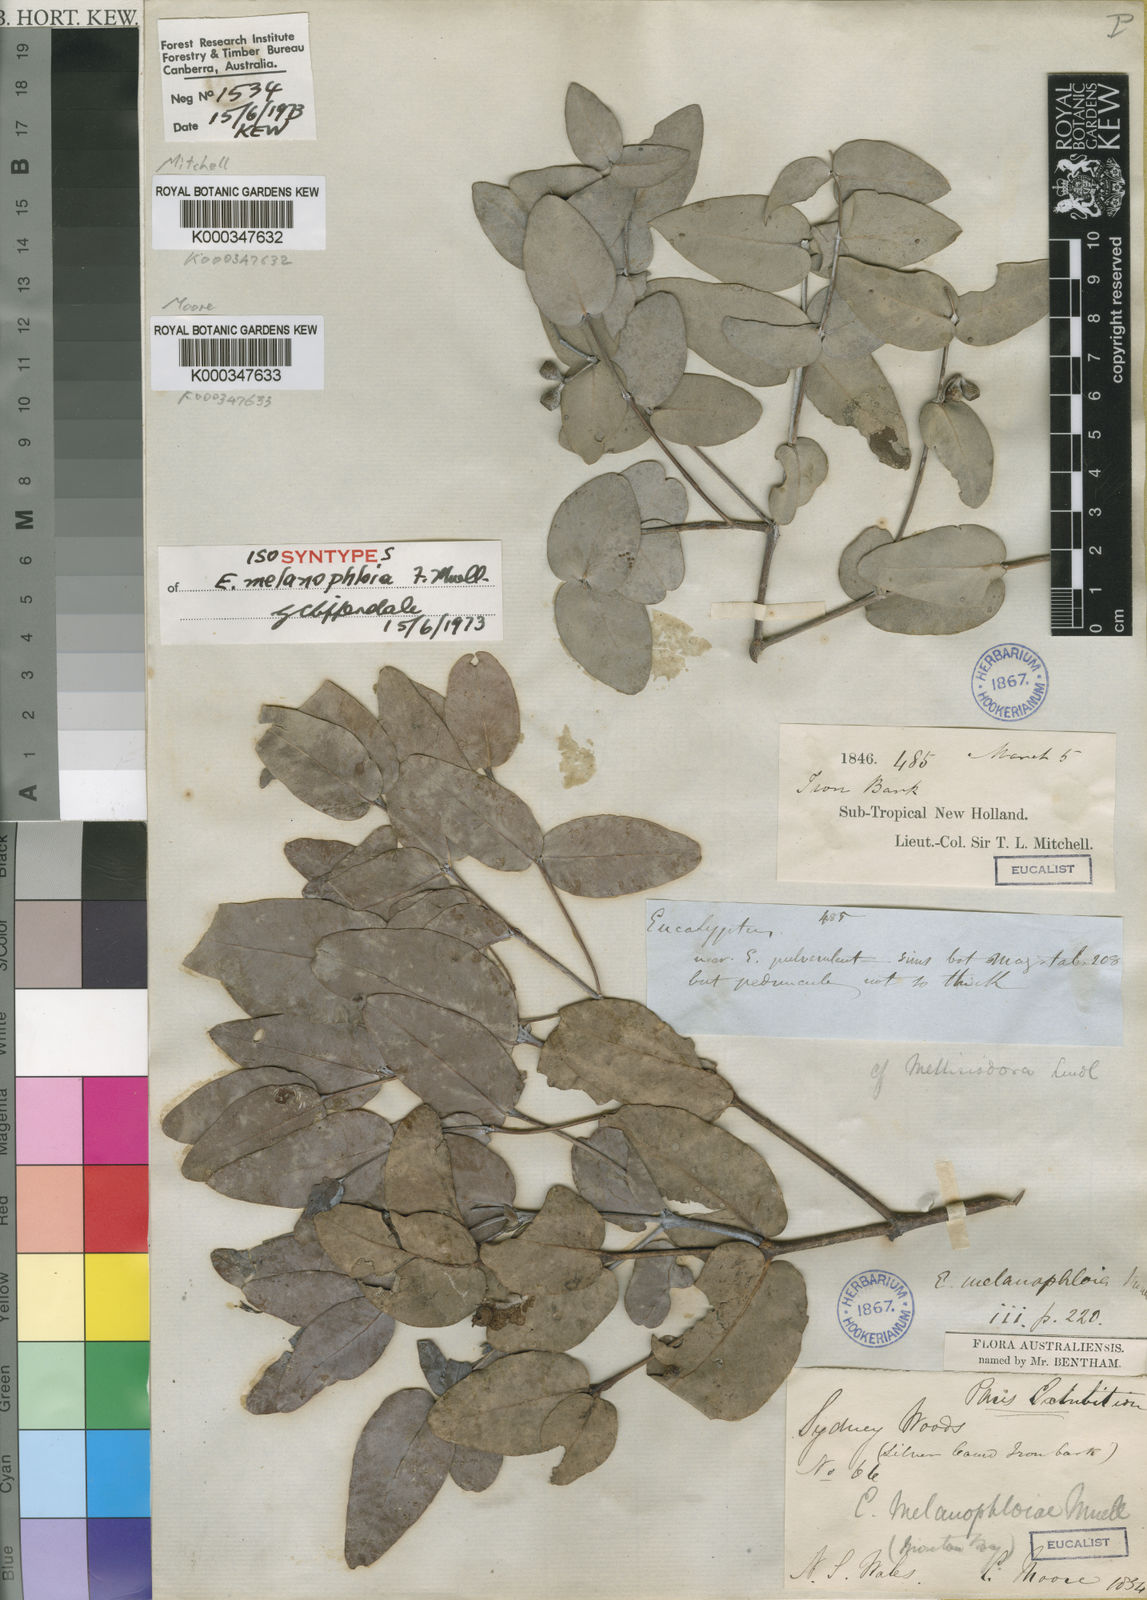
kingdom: Plantae
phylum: Tracheophyta
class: Magnoliopsida
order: Myrtales
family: Myrtaceae
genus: Eucalyptus
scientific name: Eucalyptus melanophloia
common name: Silver-leaved-ironbark
